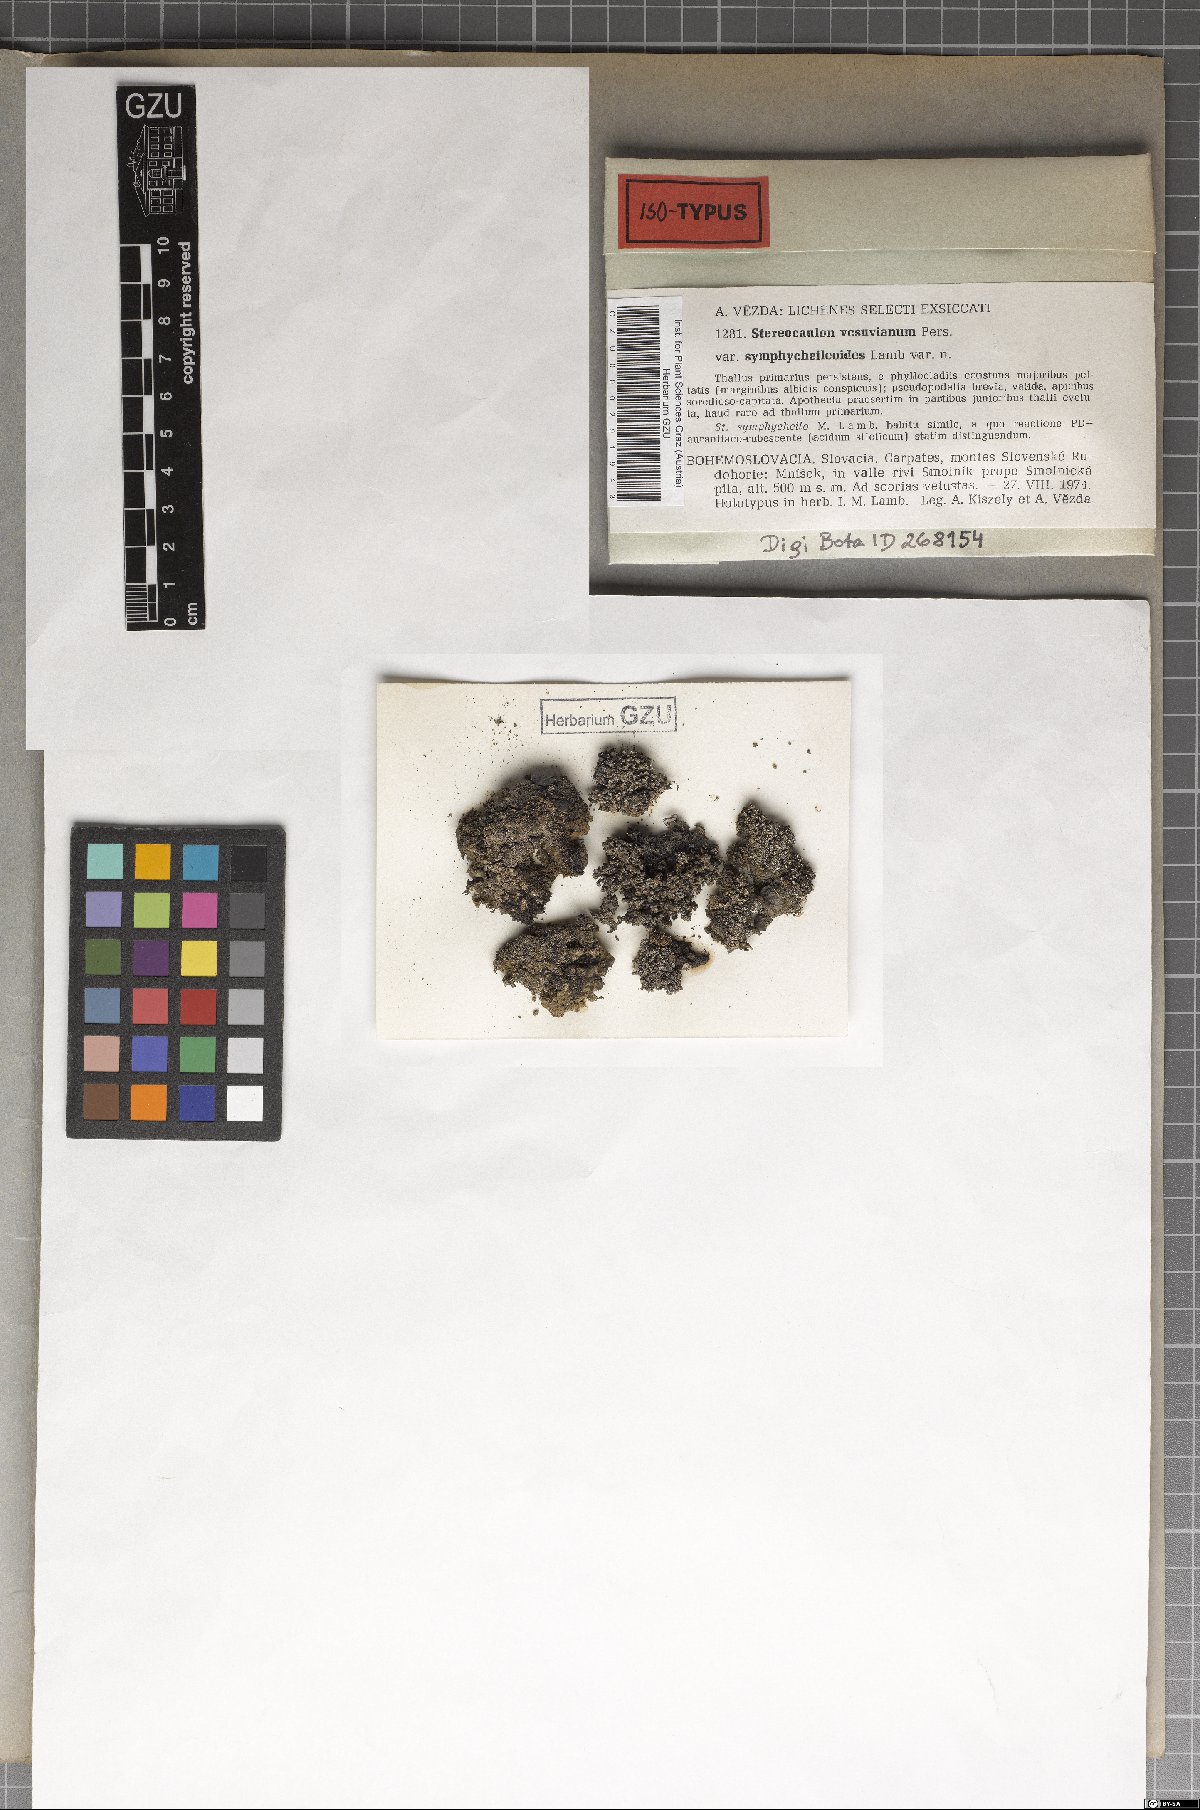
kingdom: Fungi
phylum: Ascomycota
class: Lecanoromycetes
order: Lecanorales
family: Stereocaulaceae
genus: Stereocaulon
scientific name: Stereocaulon vesuvianum
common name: Variegated foam lichen
